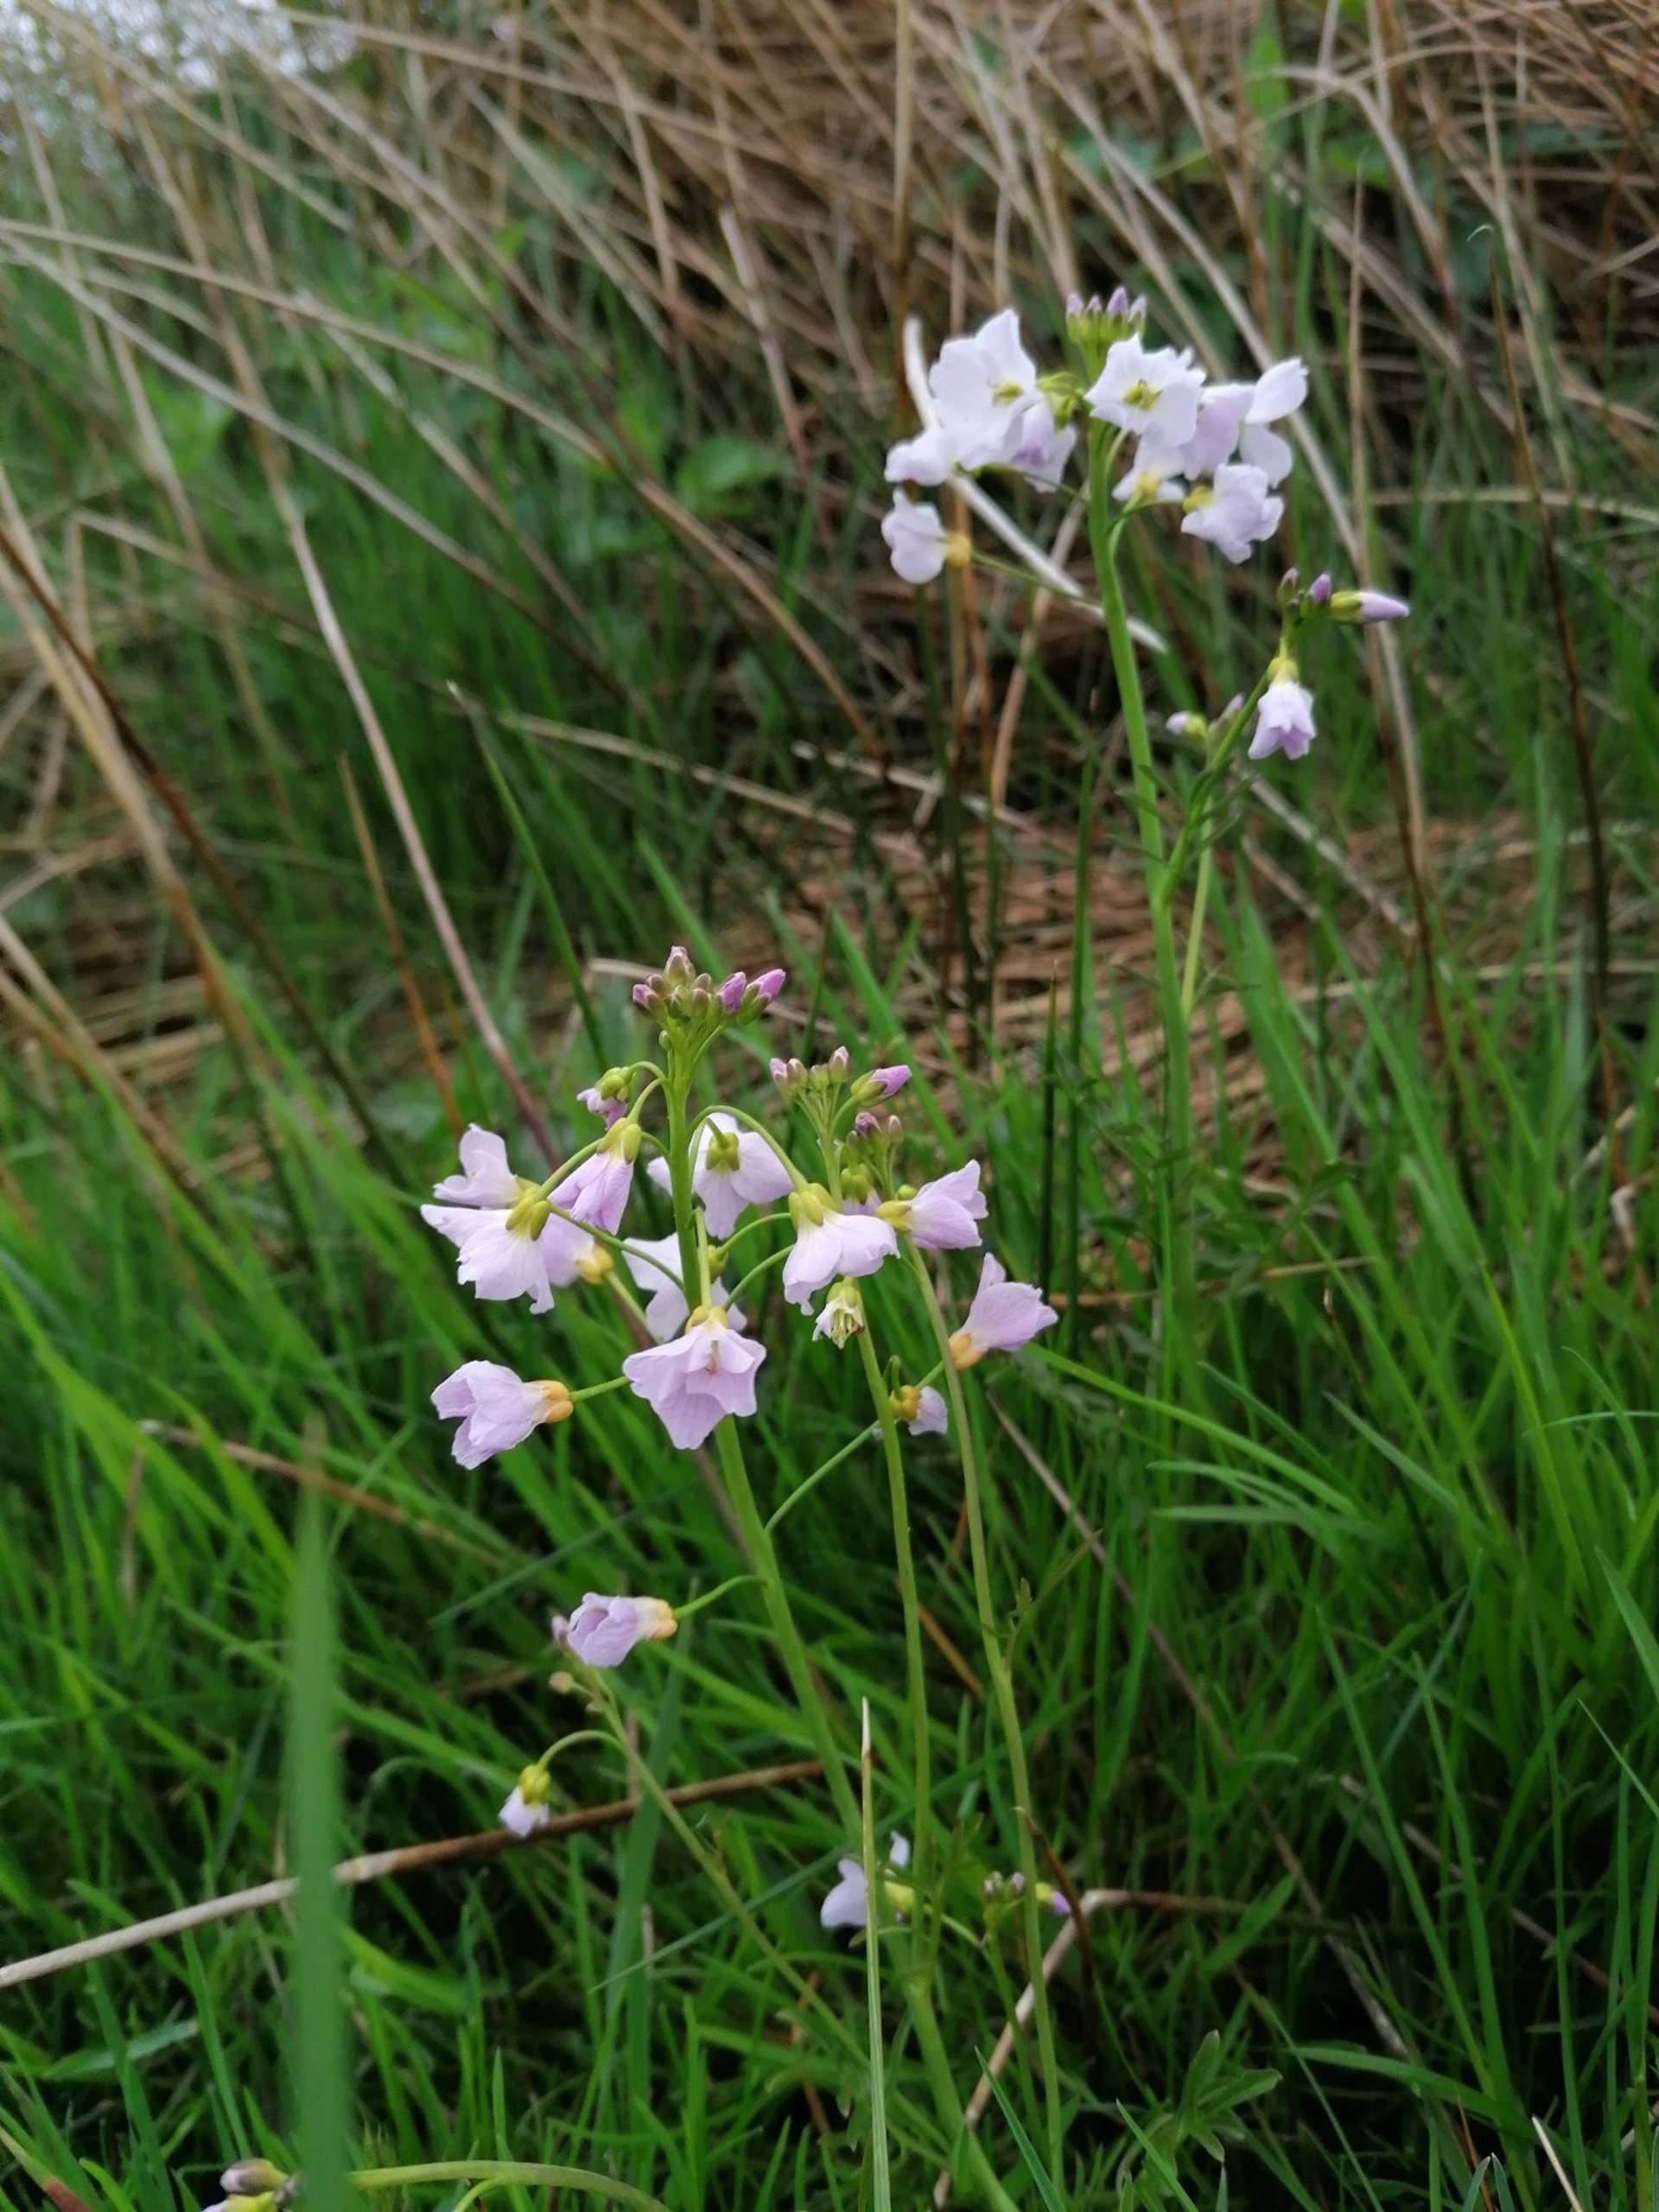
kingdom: Plantae
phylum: Tracheophyta
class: Magnoliopsida
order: Brassicales
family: Brassicaceae
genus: Cardamine
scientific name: Cardamine pratensis
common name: Engkarse
